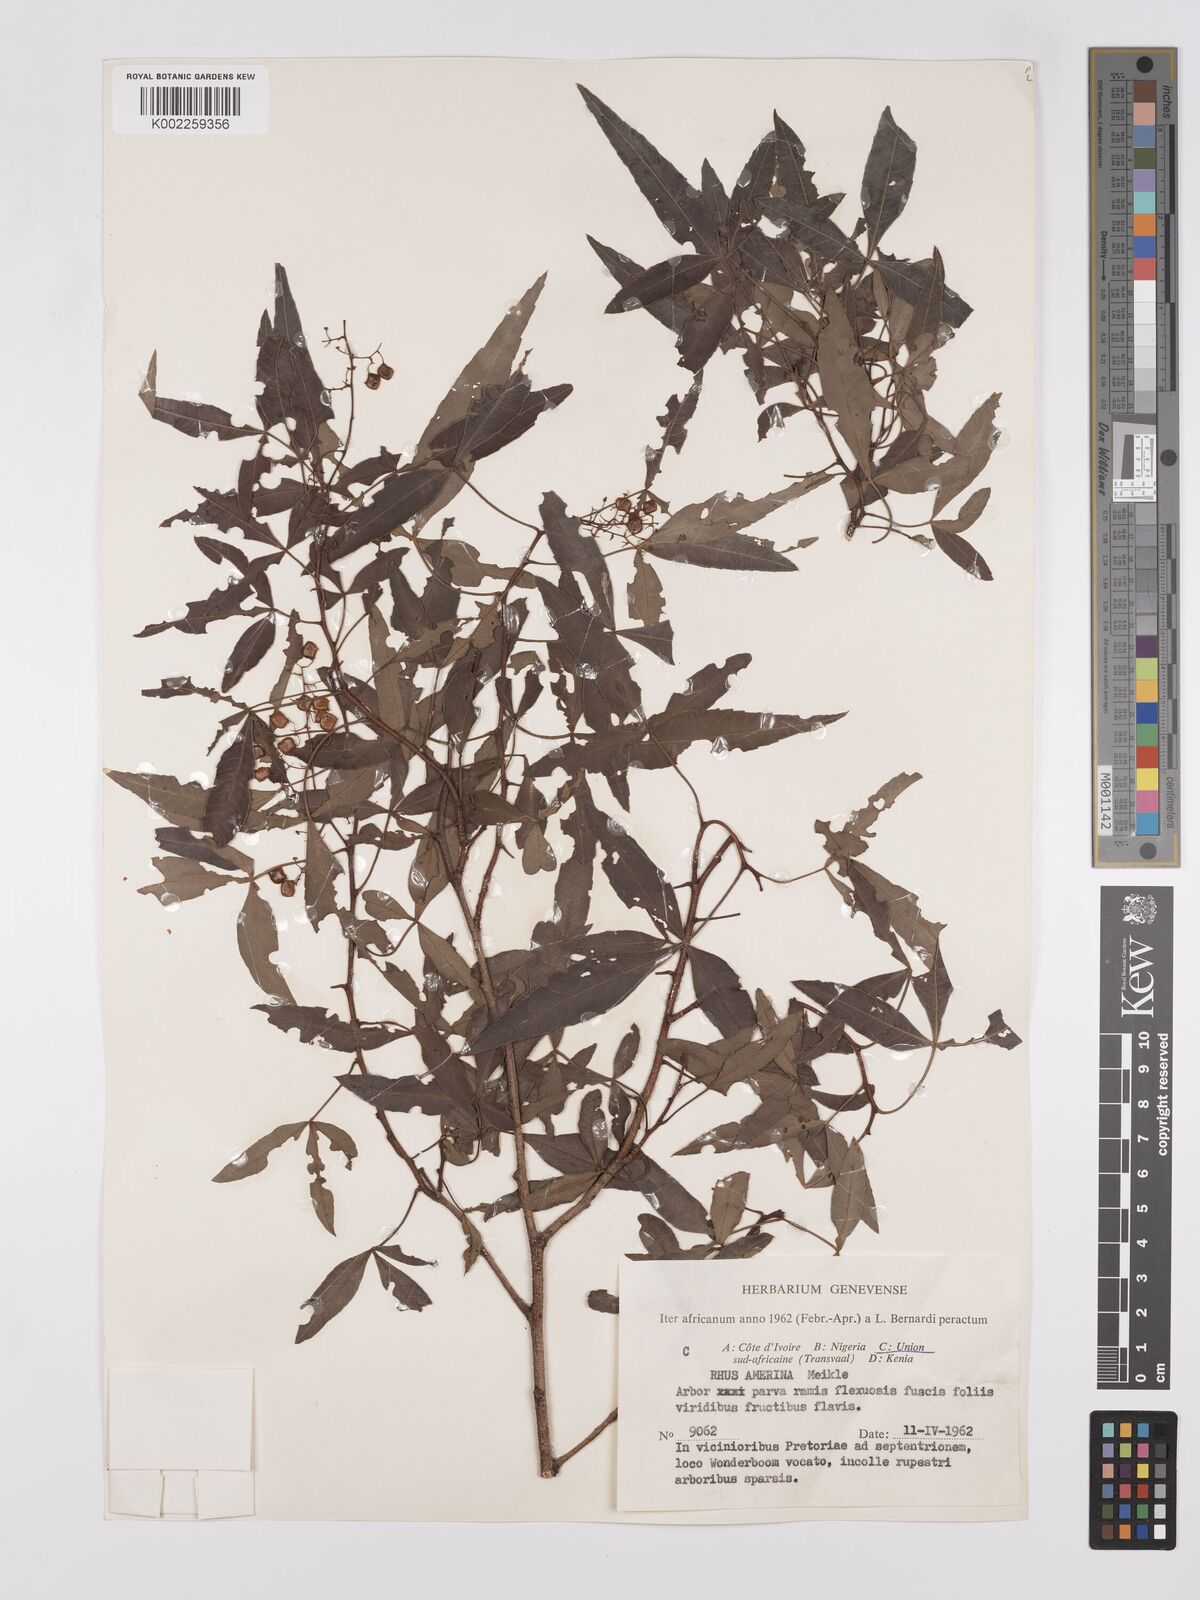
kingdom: Plantae
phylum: Tracheophyta
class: Magnoliopsida
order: Sapindales
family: Anacardiaceae
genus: Searsia
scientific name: Searsia leptodictya
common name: Mountain karee
